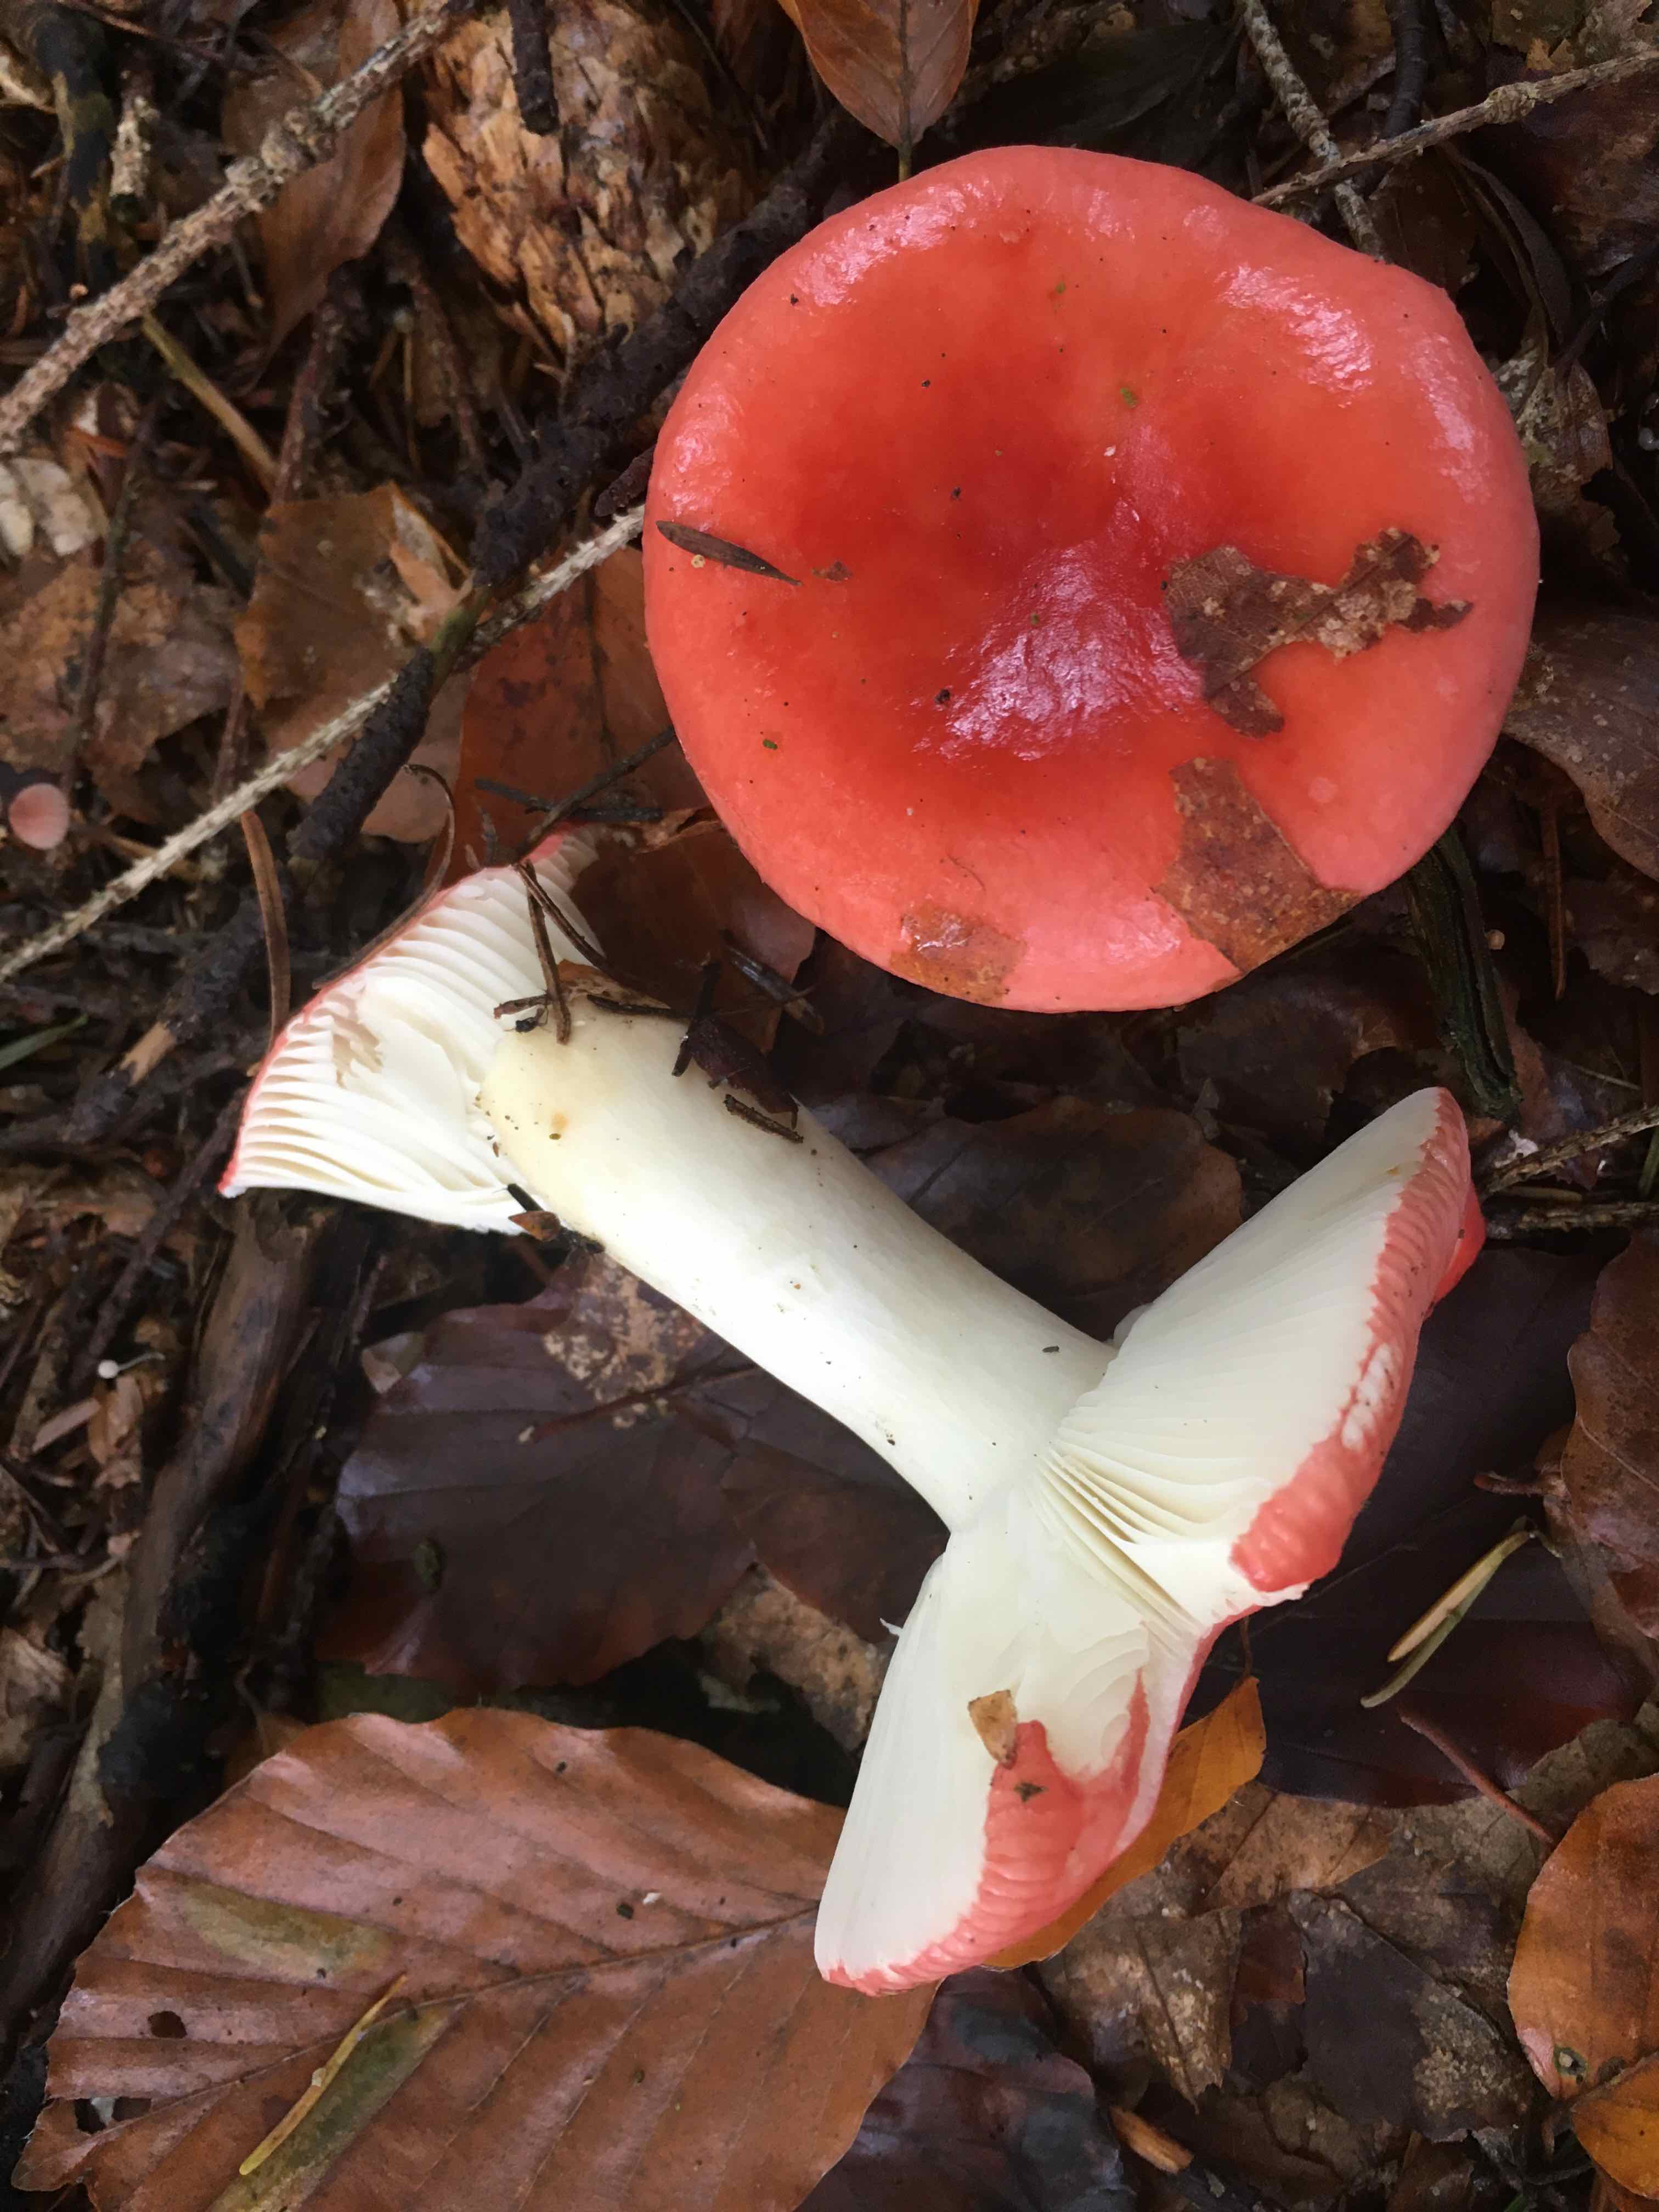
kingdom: Fungi
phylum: Basidiomycota
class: Agaricomycetes
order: Russulales
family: Russulaceae
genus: Russula
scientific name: Russula
